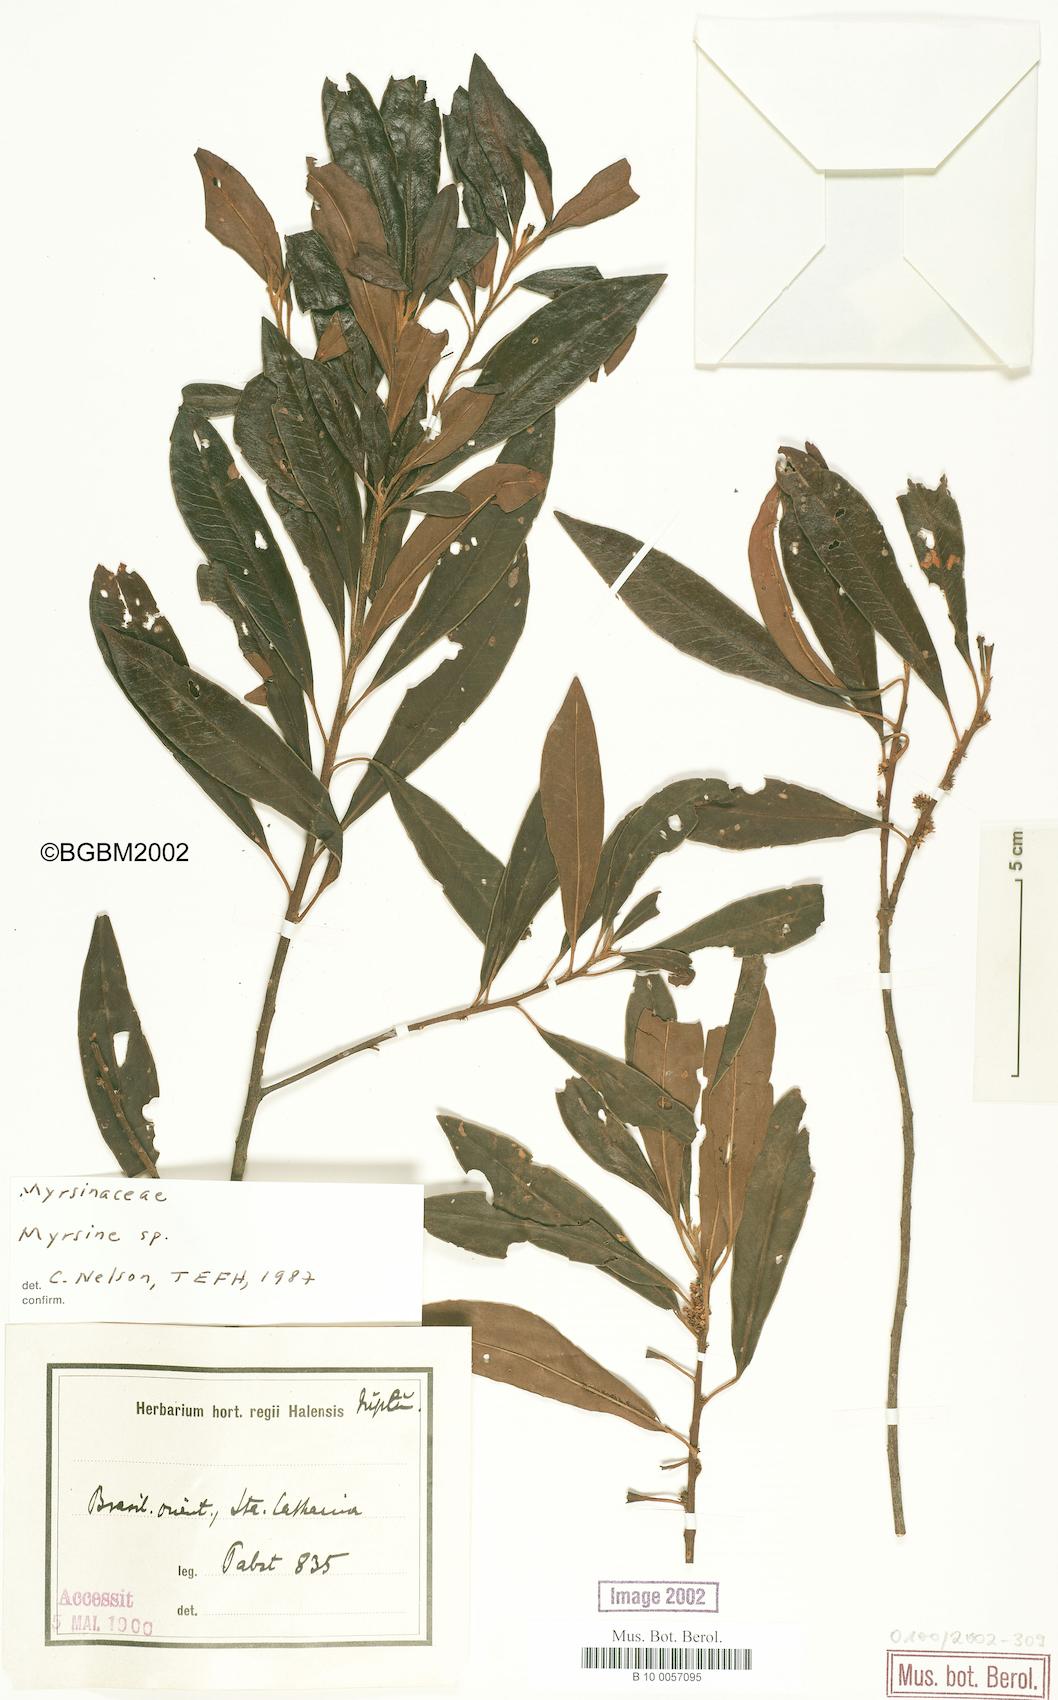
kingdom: Plantae
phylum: Tracheophyta
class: Magnoliopsida
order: Ericales
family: Primulaceae
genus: Myrsine
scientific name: Myrsine
